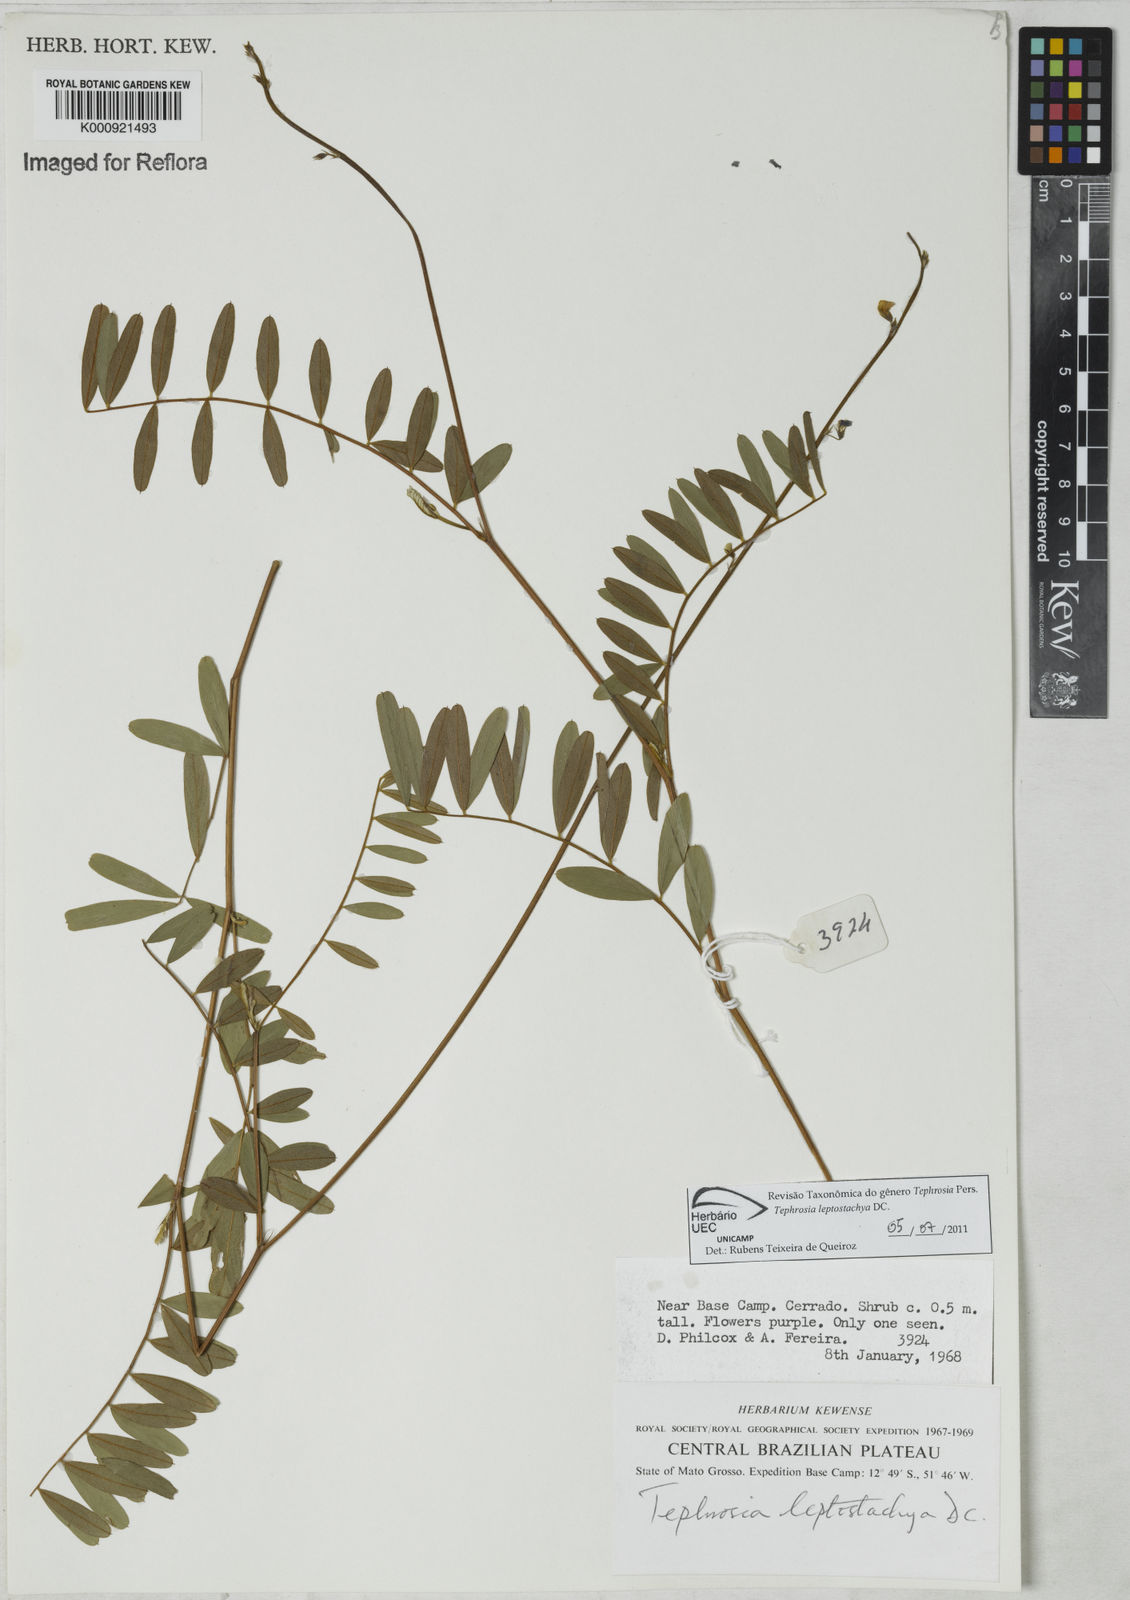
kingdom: Plantae
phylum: Tracheophyta
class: Magnoliopsida
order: Fabales
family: Fabaceae
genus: Tephrosia
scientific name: Tephrosia purpurea
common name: Fishpoison
